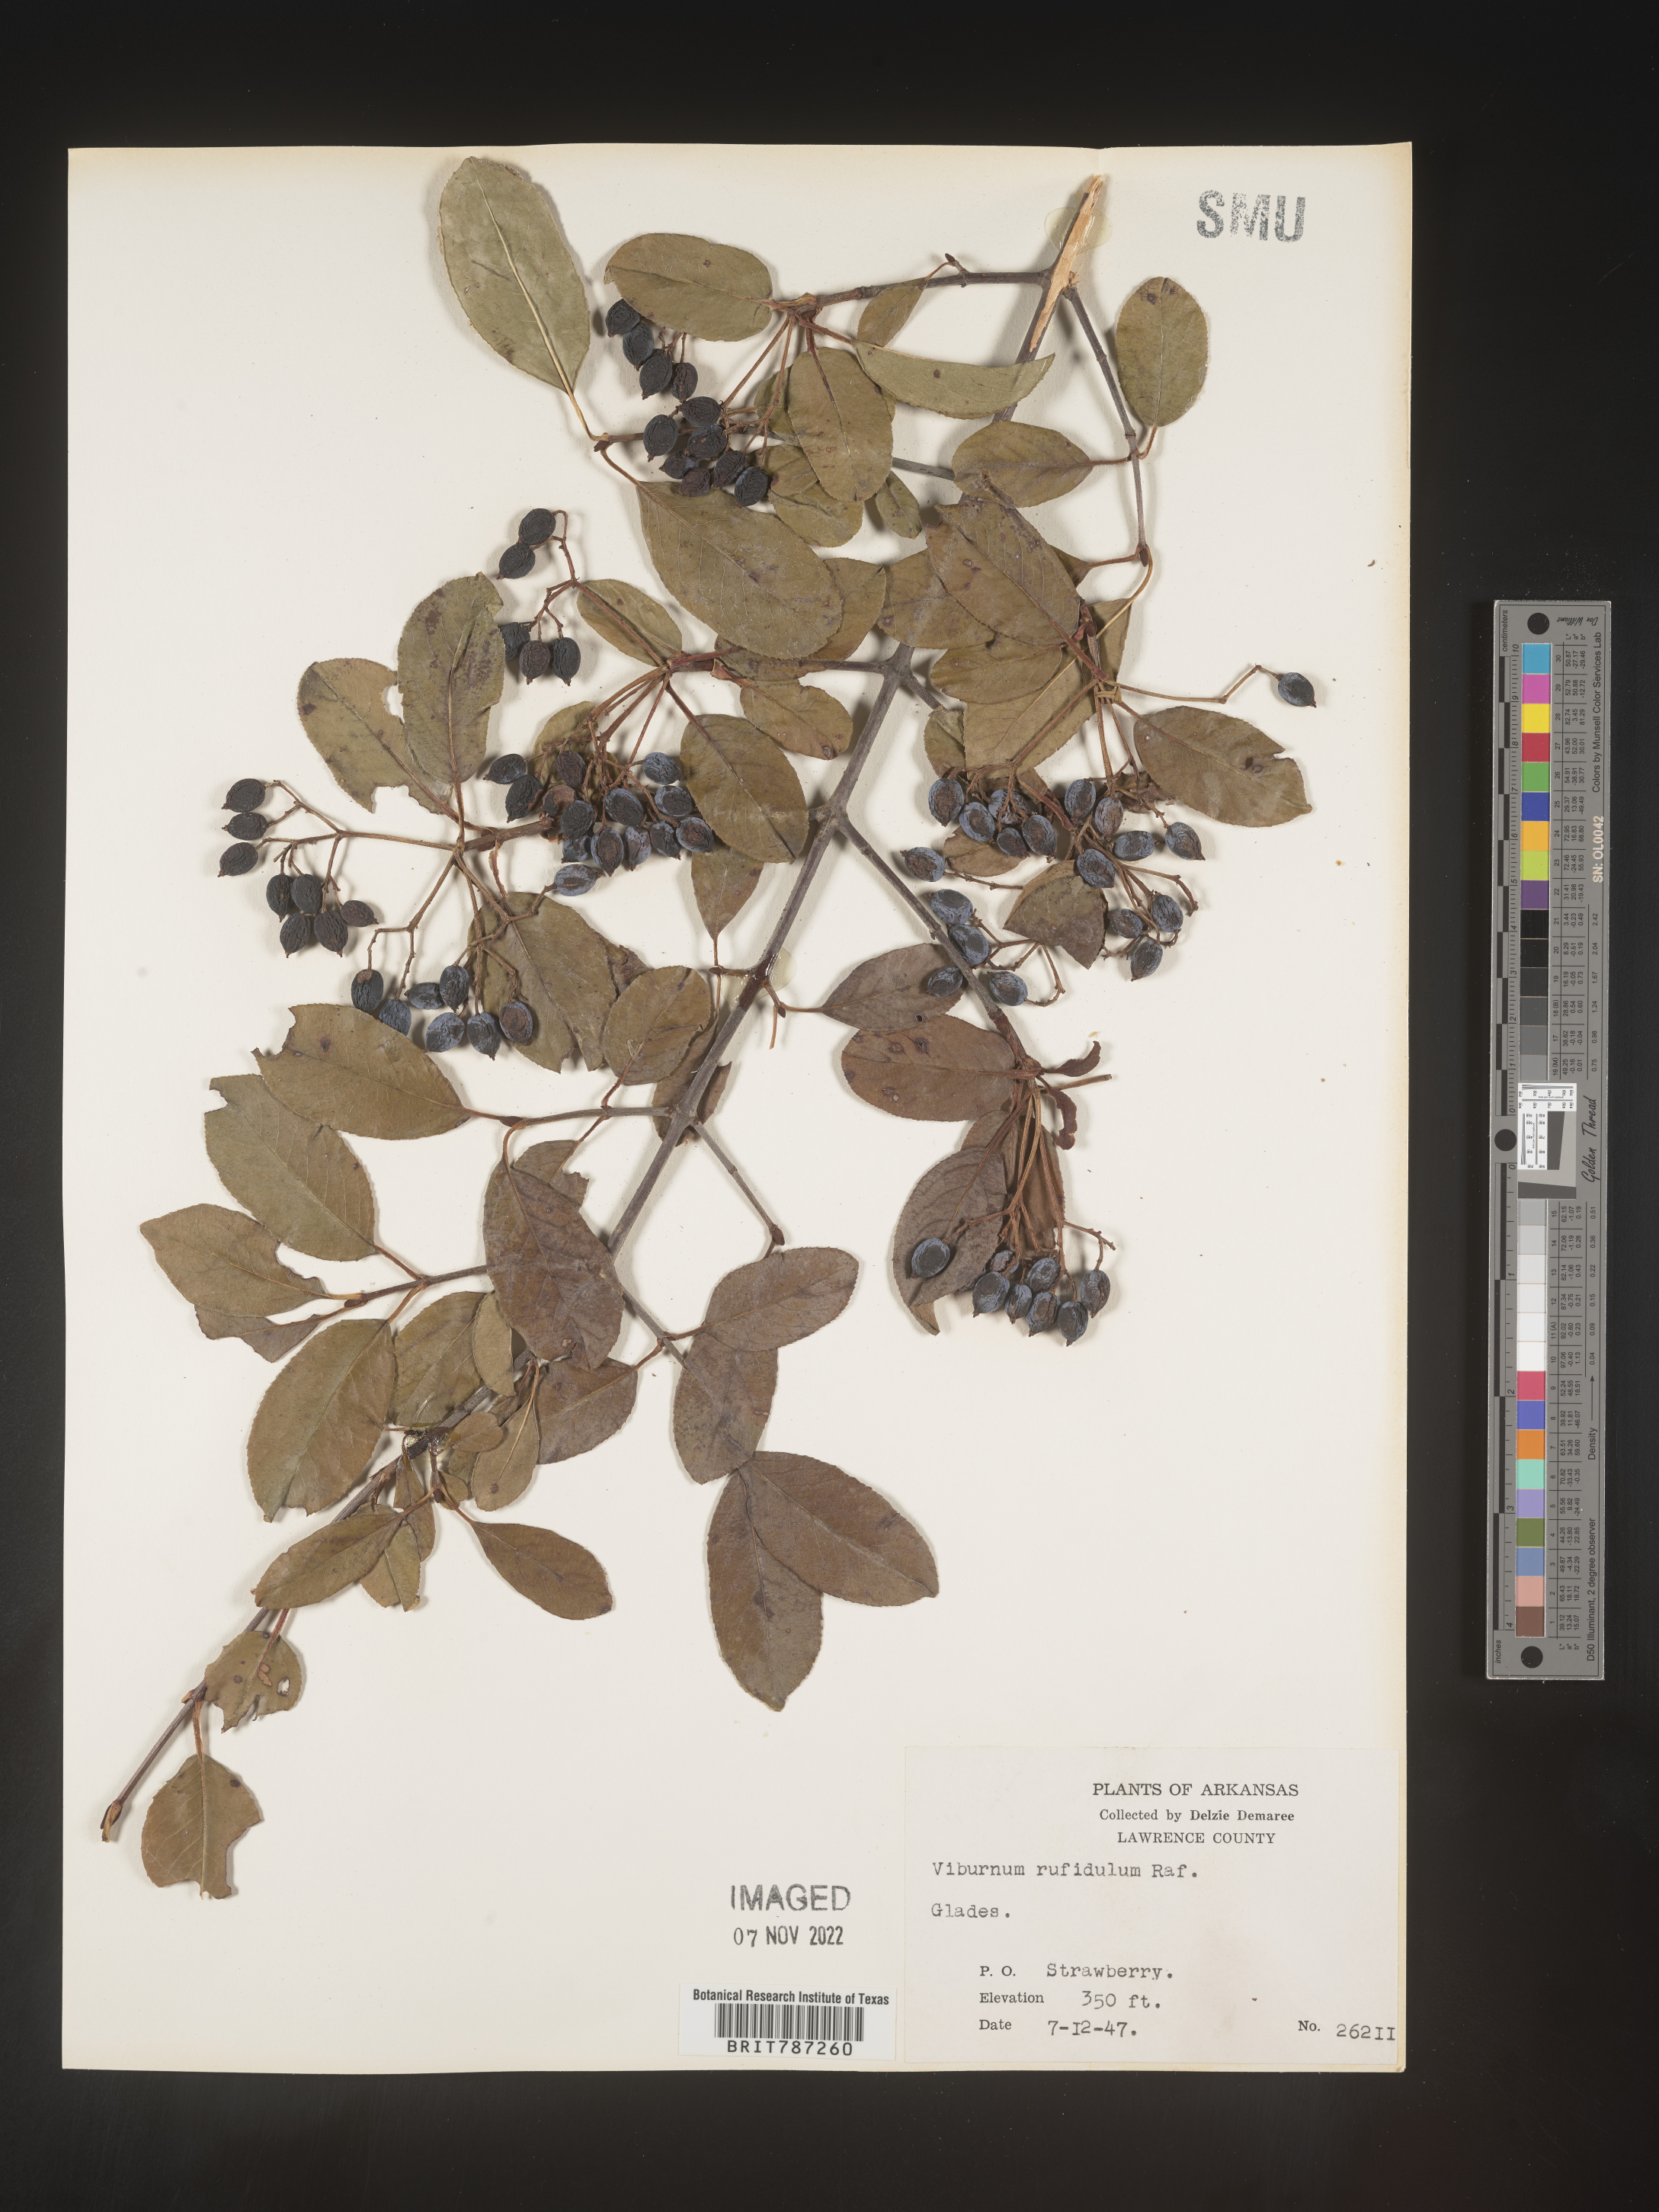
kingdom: Plantae
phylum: Tracheophyta
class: Magnoliopsida
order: Dipsacales
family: Viburnaceae
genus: Viburnum
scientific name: Viburnum rufidulum
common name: Blue haw
